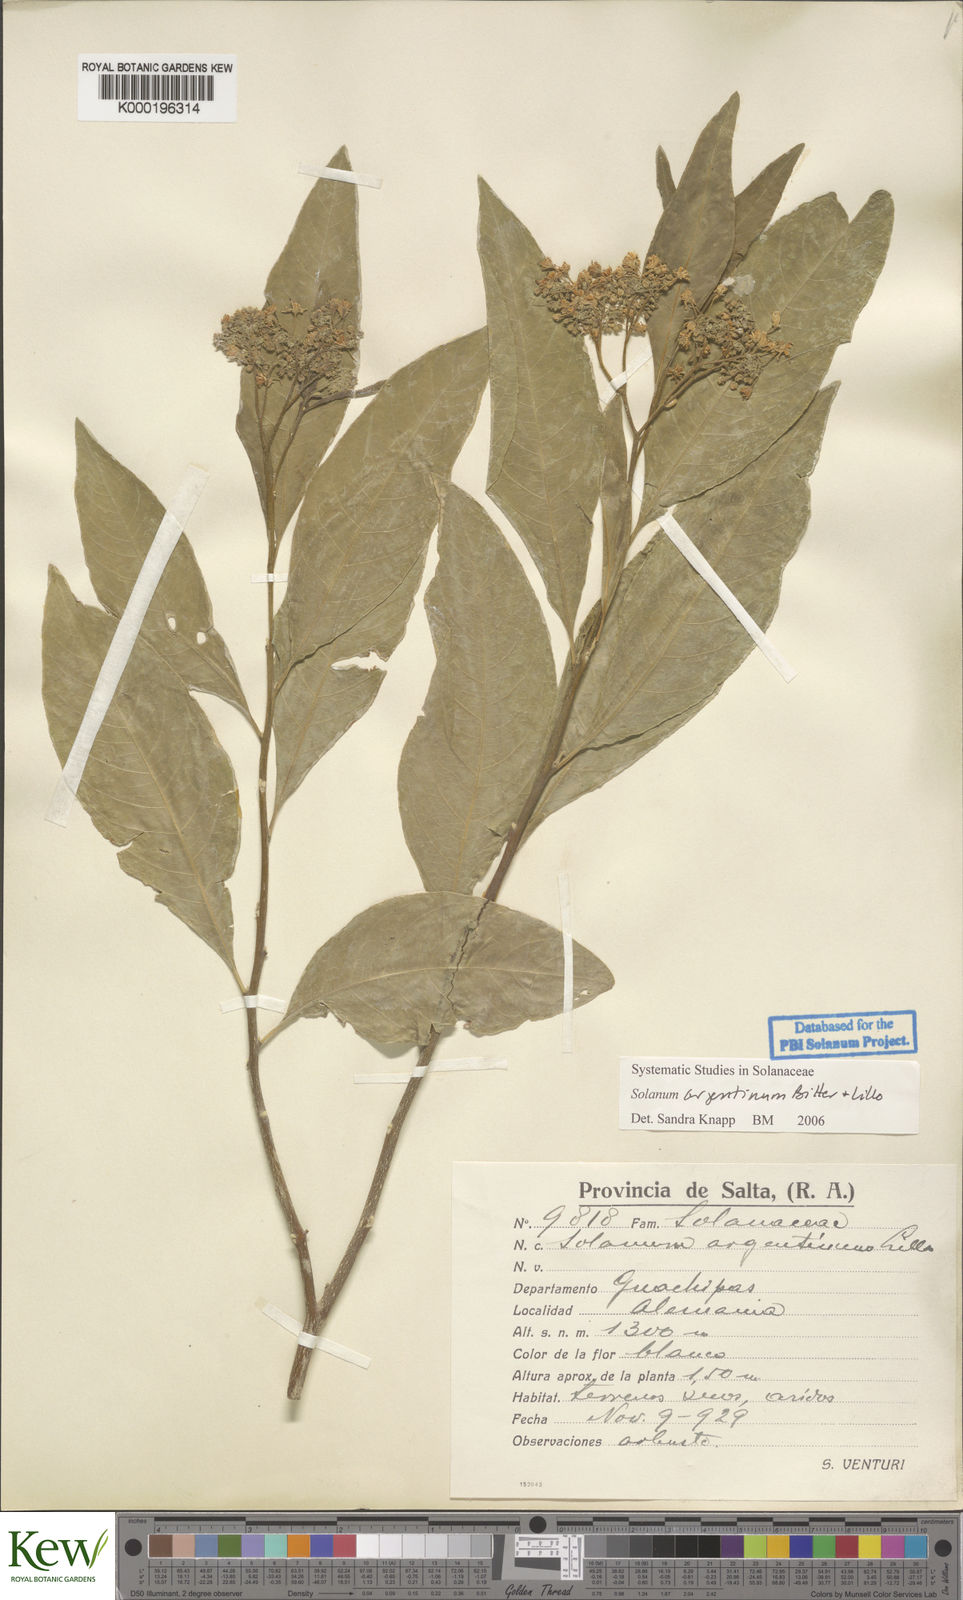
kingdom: Plantae
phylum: Tracheophyta
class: Magnoliopsida
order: Solanales
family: Solanaceae
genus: Solanum
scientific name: Solanum argentinum
